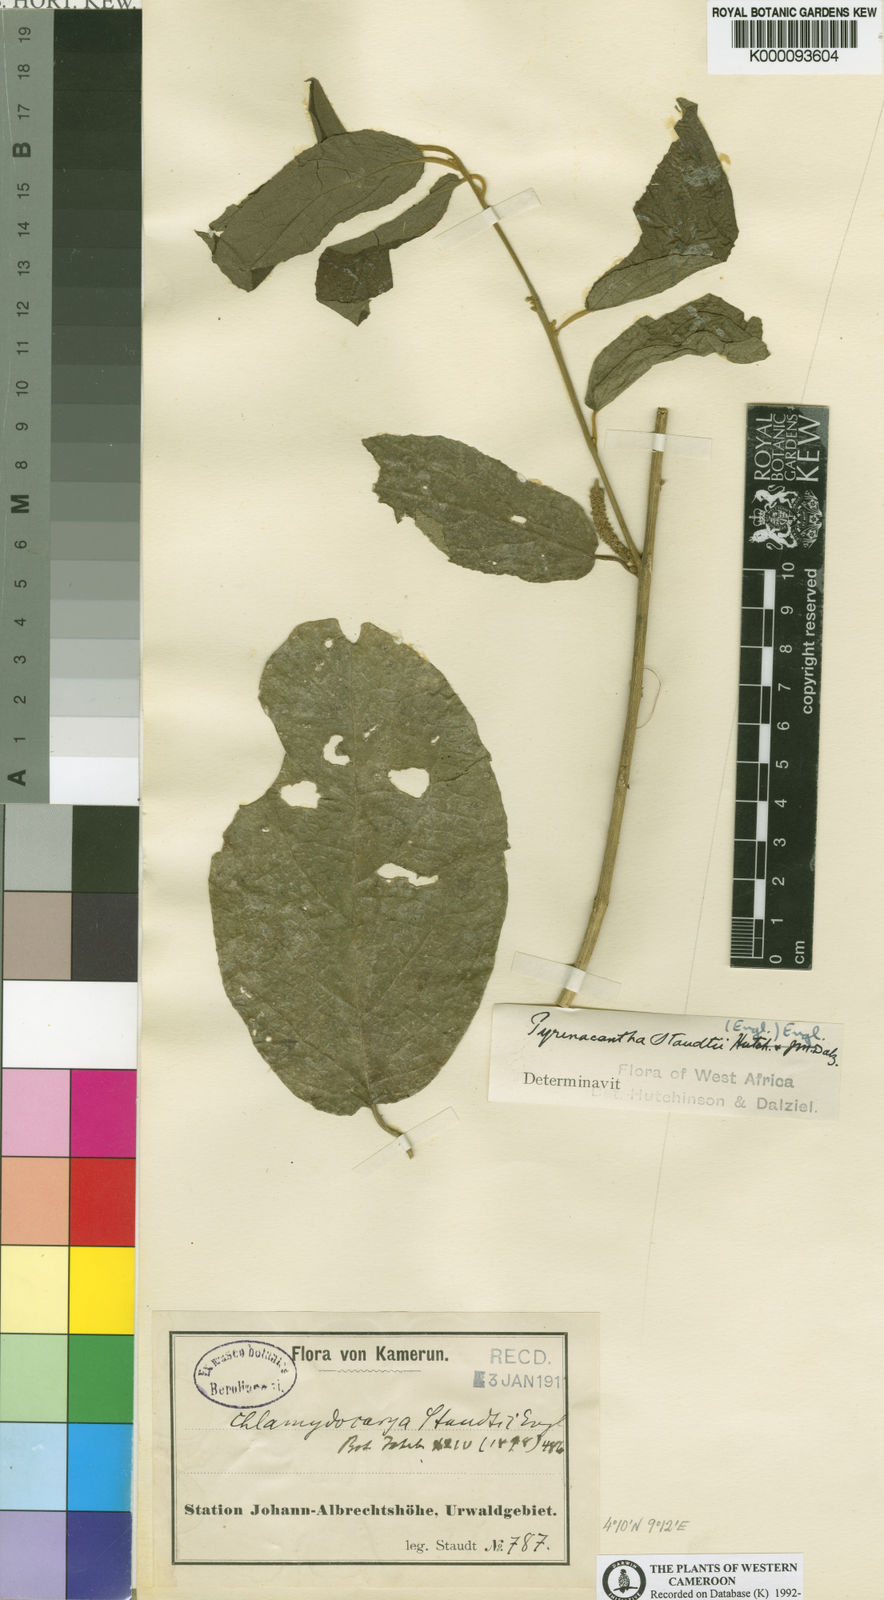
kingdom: Plantae
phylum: Tracheophyta
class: Magnoliopsida
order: Icacinales
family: Icacinaceae
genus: Pyrenacantha
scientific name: Pyrenacantha staudtii
